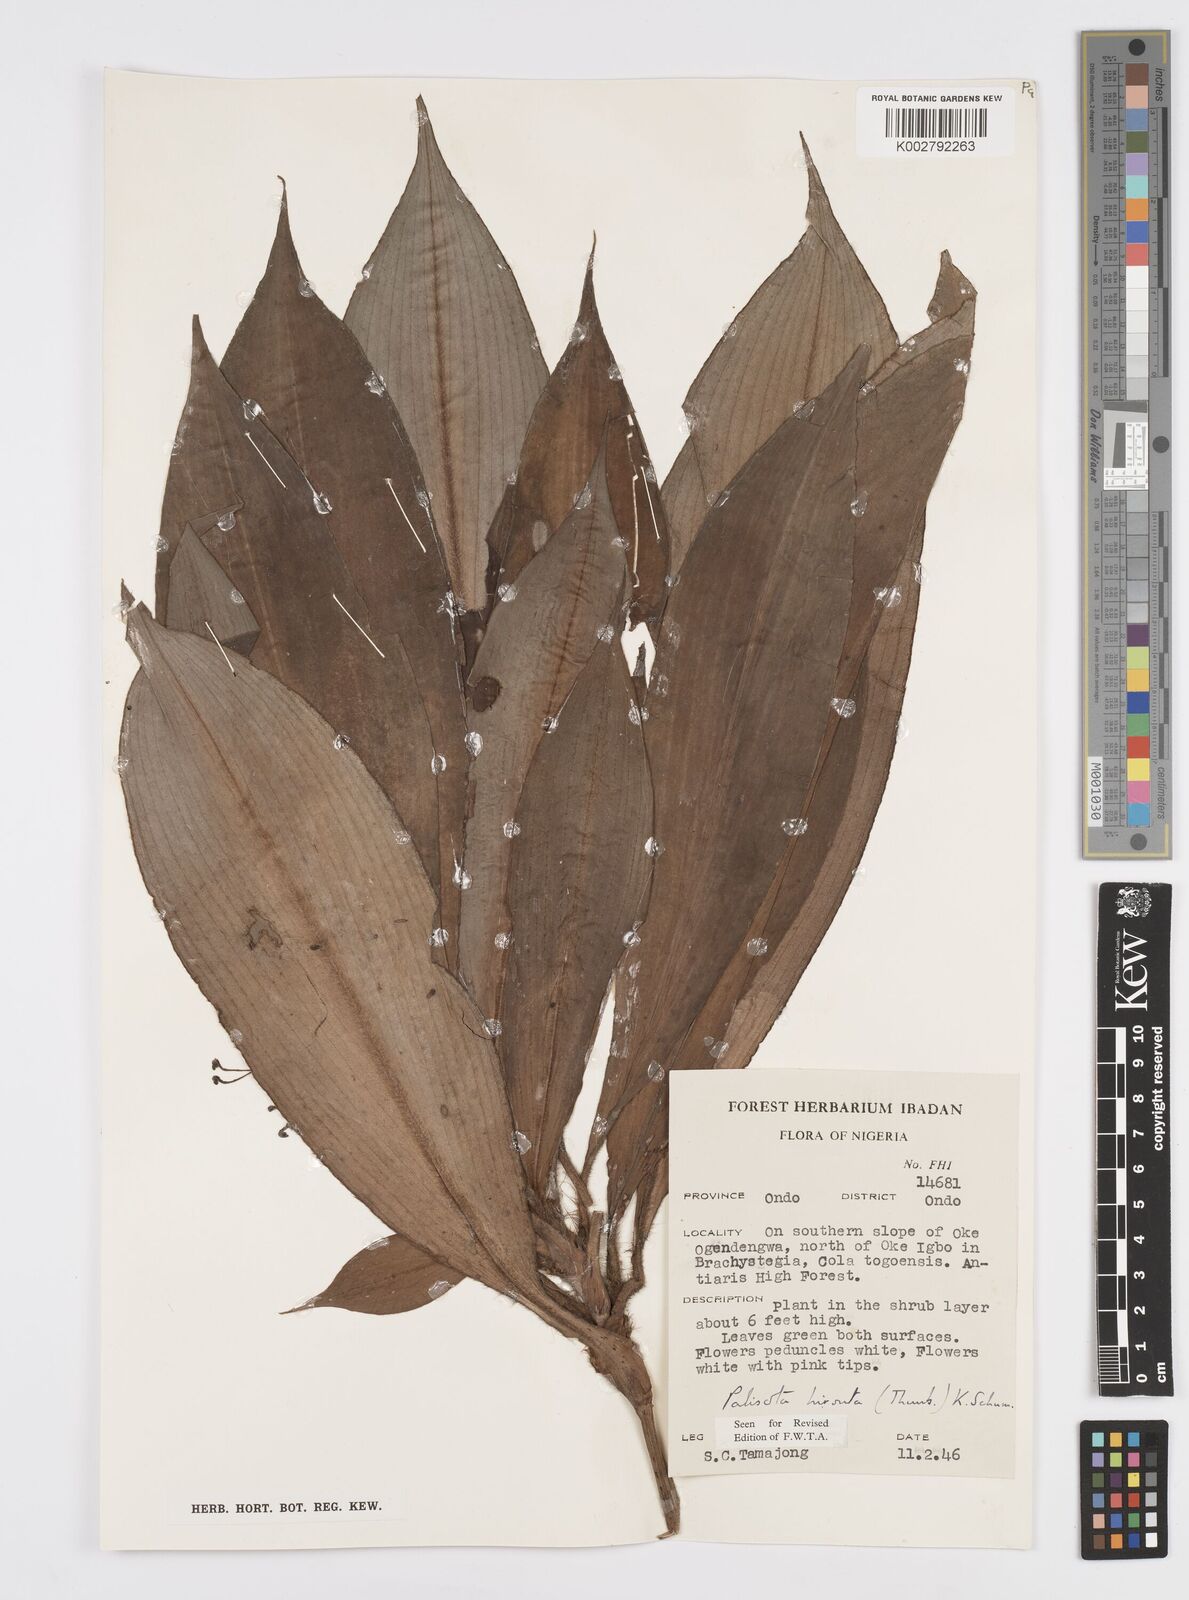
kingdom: Plantae
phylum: Tracheophyta
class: Liliopsida
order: Commelinales
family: Commelinaceae
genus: Palisota
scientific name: Palisota hirsuta
